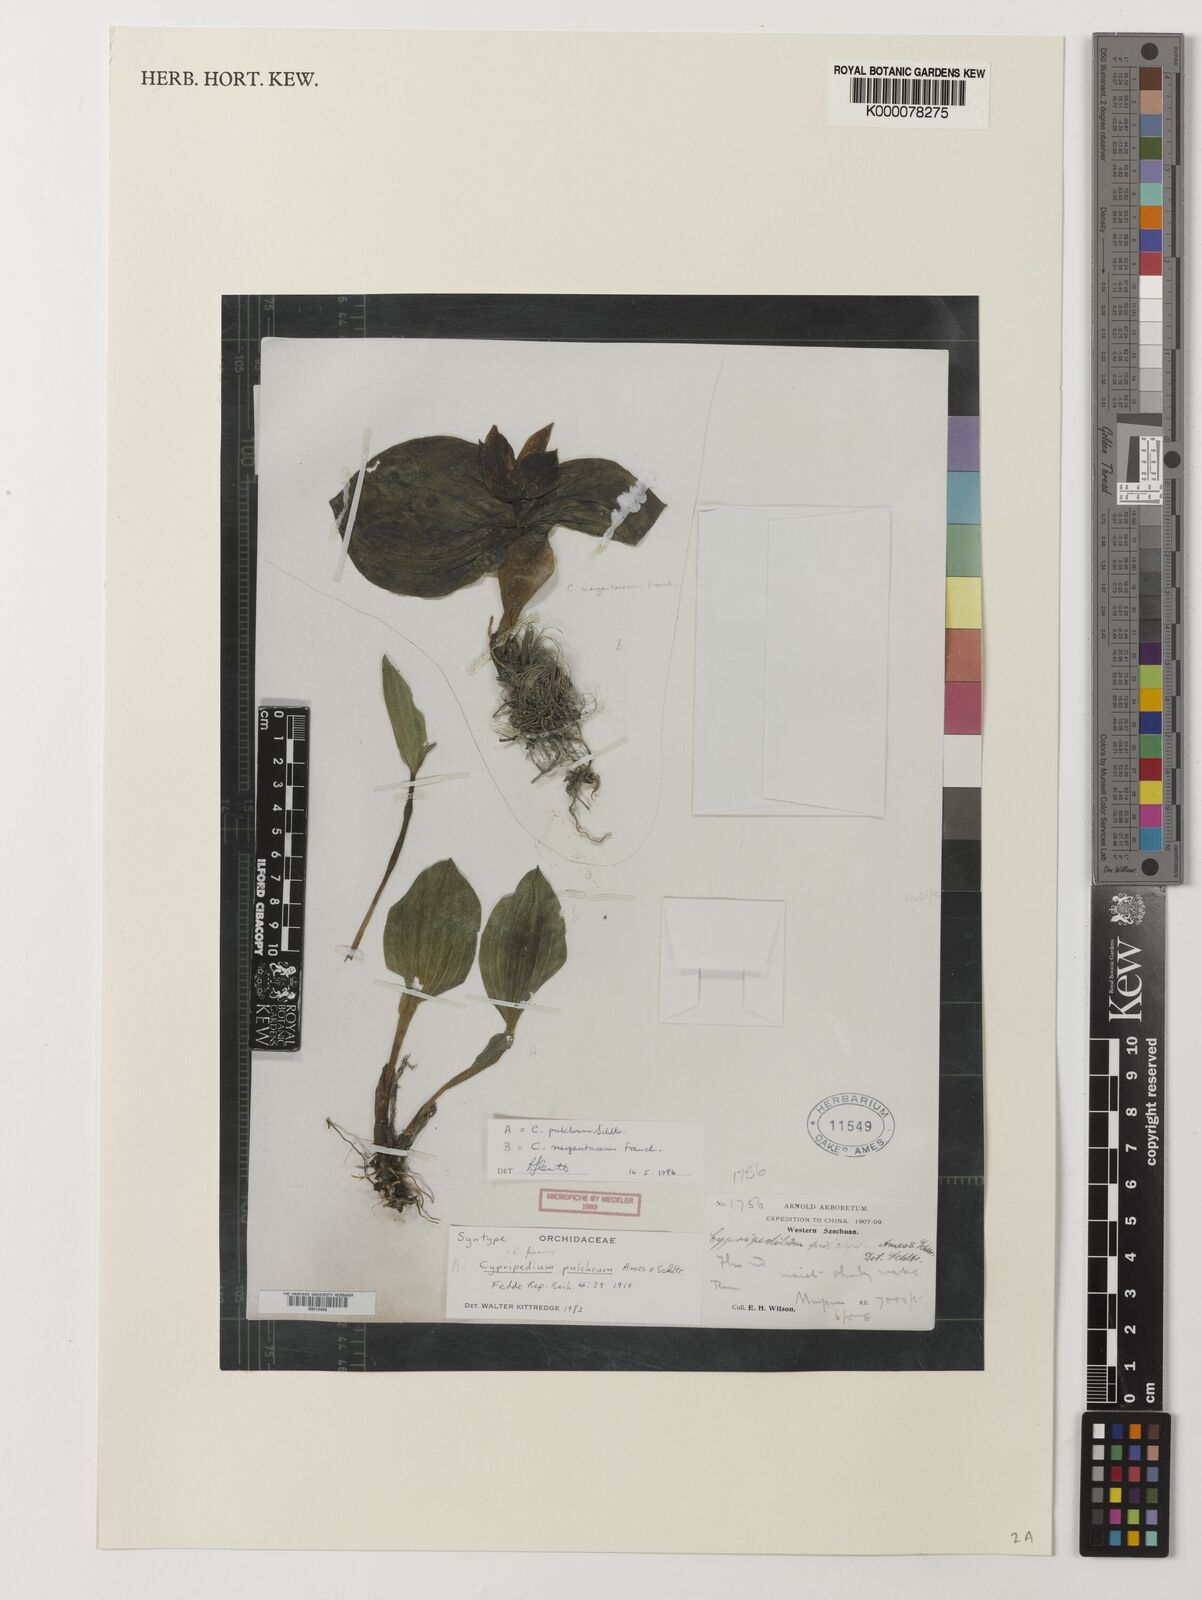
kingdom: Plantae
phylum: Tracheophyta
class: Liliopsida
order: Asparagales
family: Orchidaceae
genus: Cypripedium
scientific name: Cypripedium franchetii
